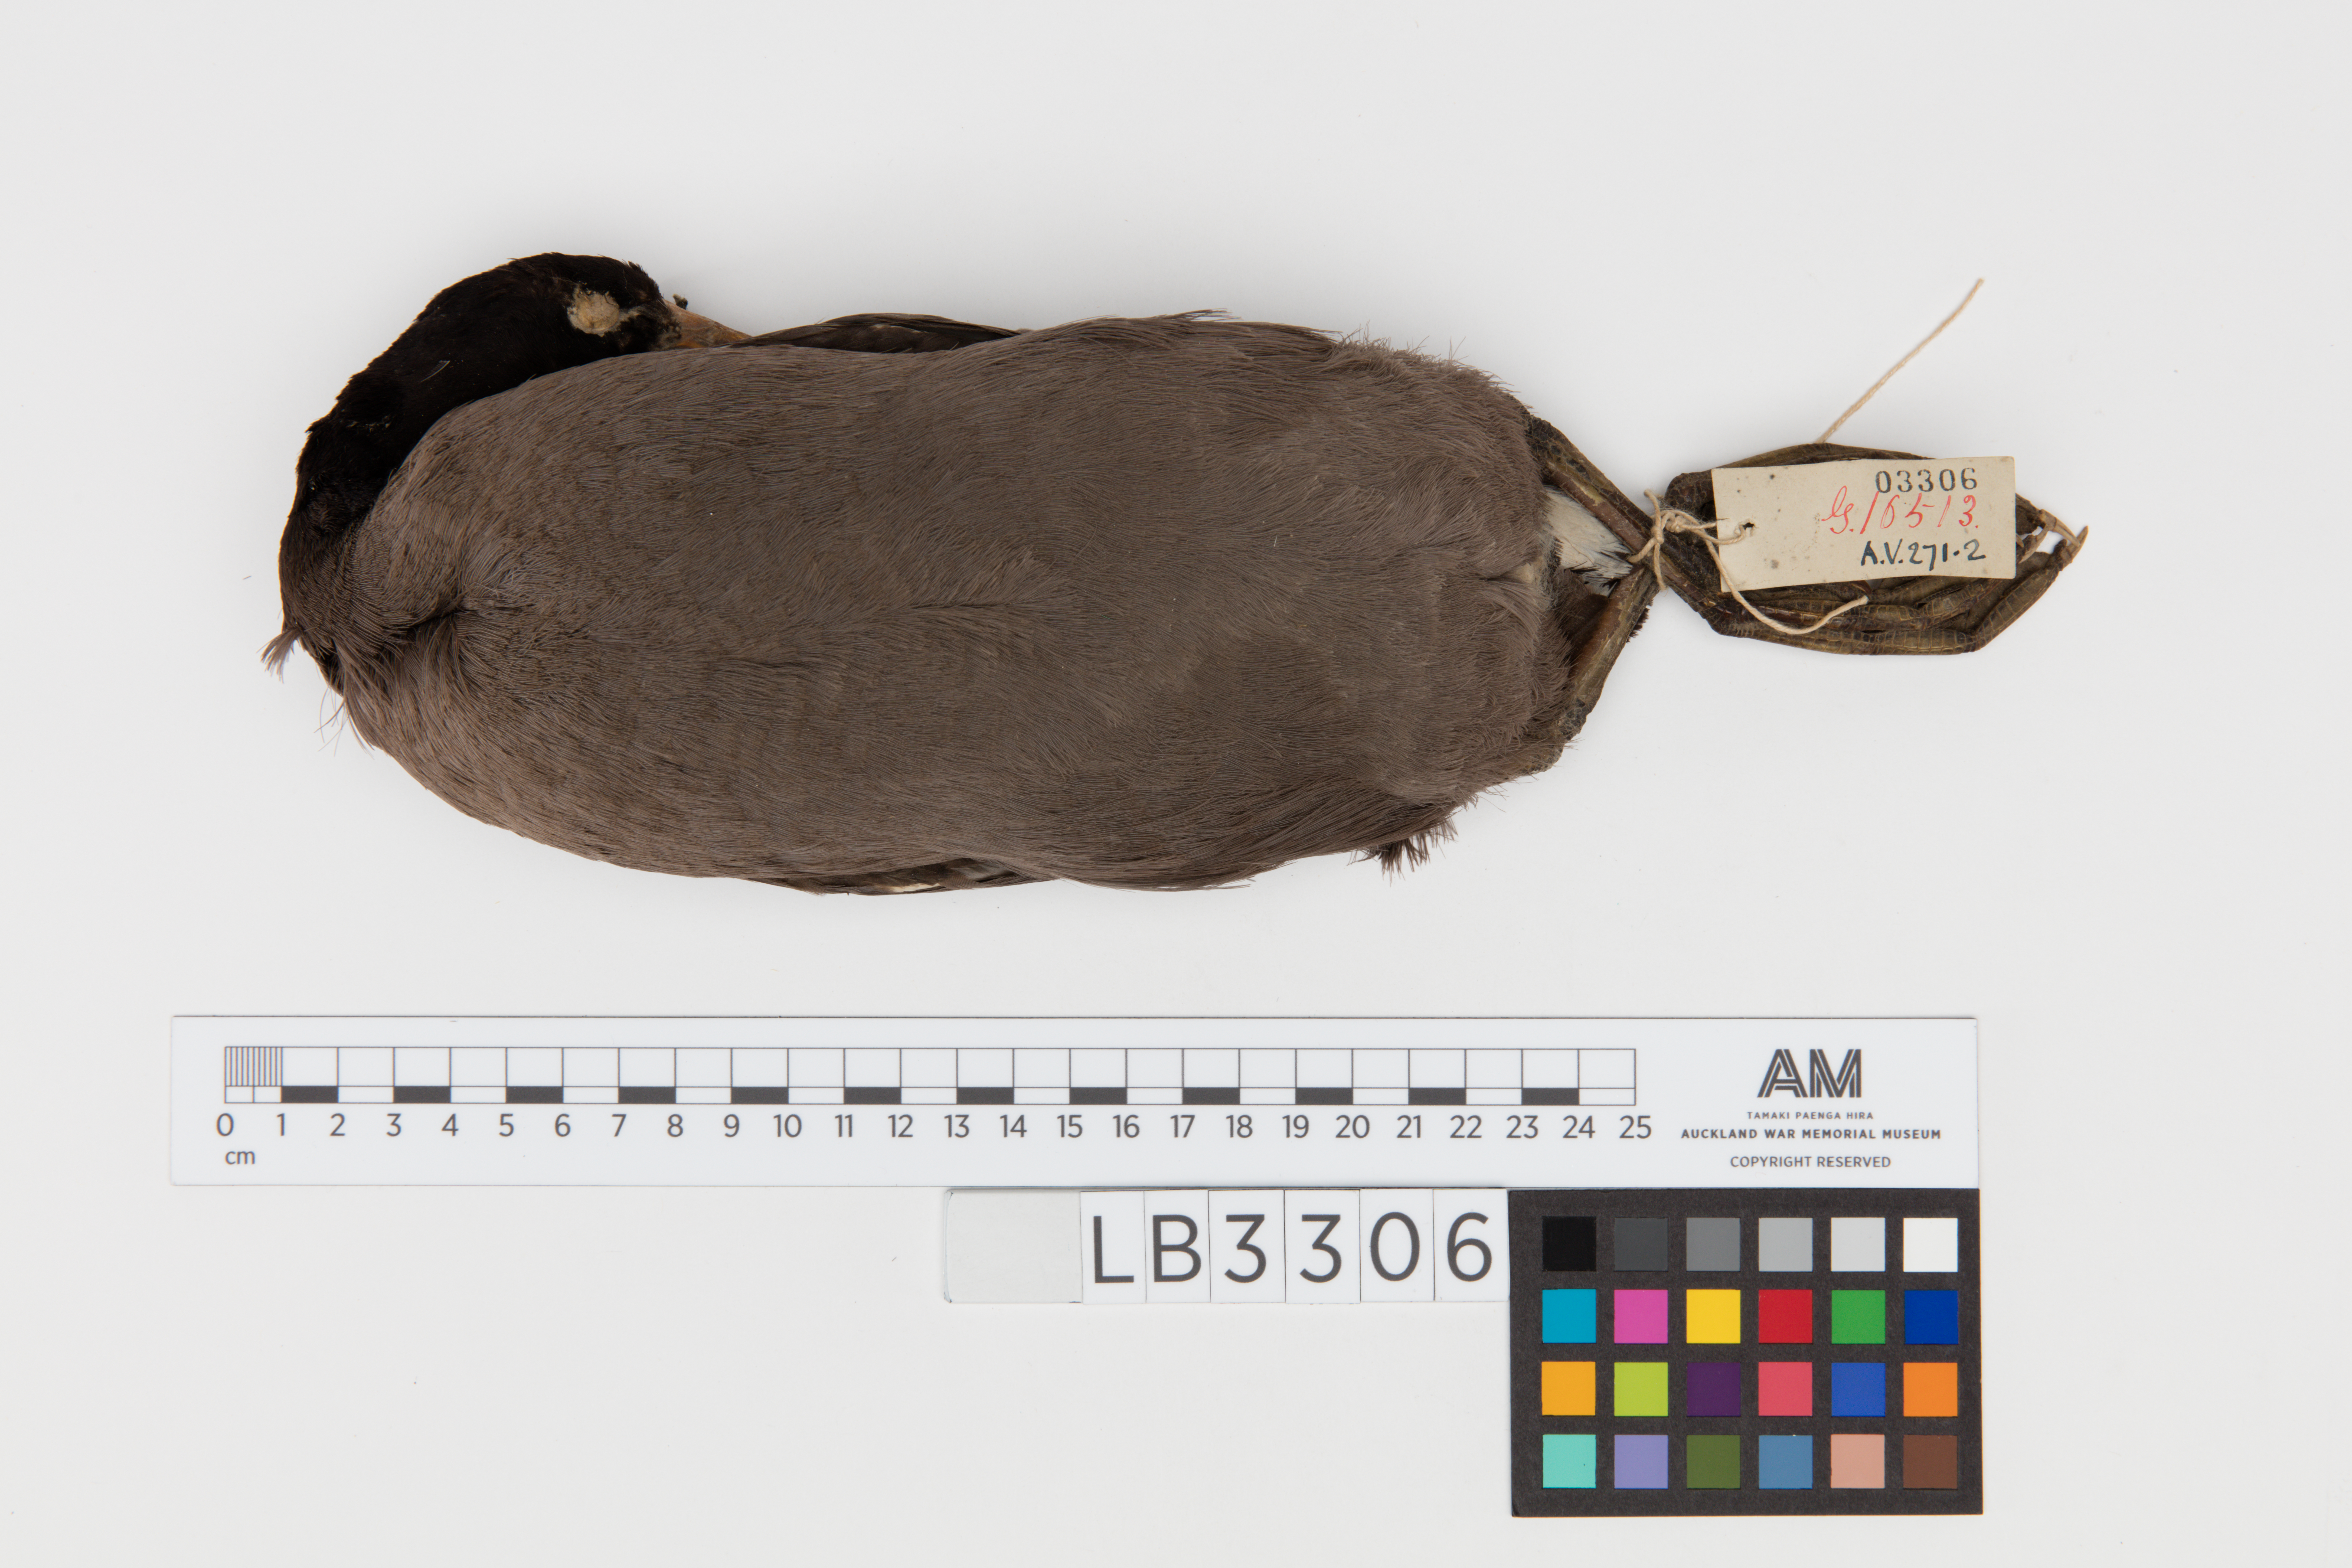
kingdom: Animalia
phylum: Chordata
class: Aves
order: Gruiformes
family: Rallidae
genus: Fulica
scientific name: Fulica atra
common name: Eurasian coot
